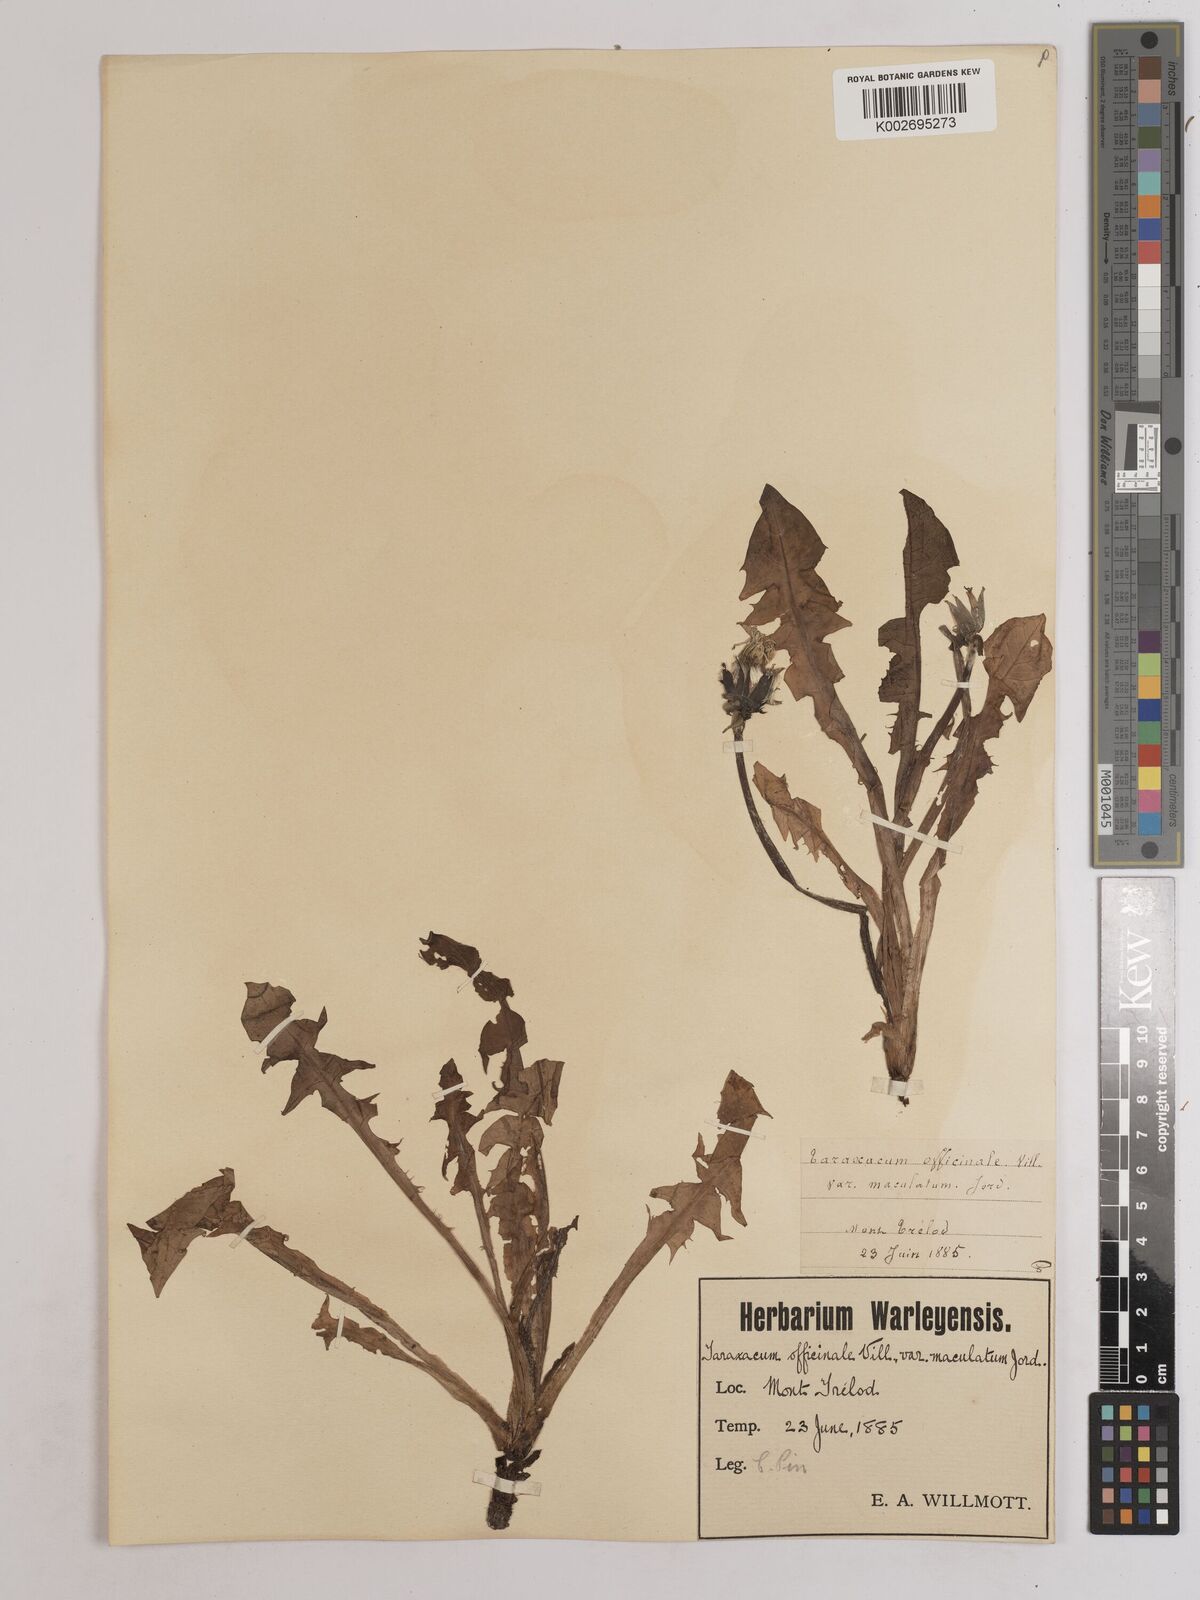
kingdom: Plantae
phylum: Tracheophyta
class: Magnoliopsida
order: Asterales
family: Asteraceae
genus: Taraxacum
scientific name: Taraxacum officinale
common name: Common dandelion
